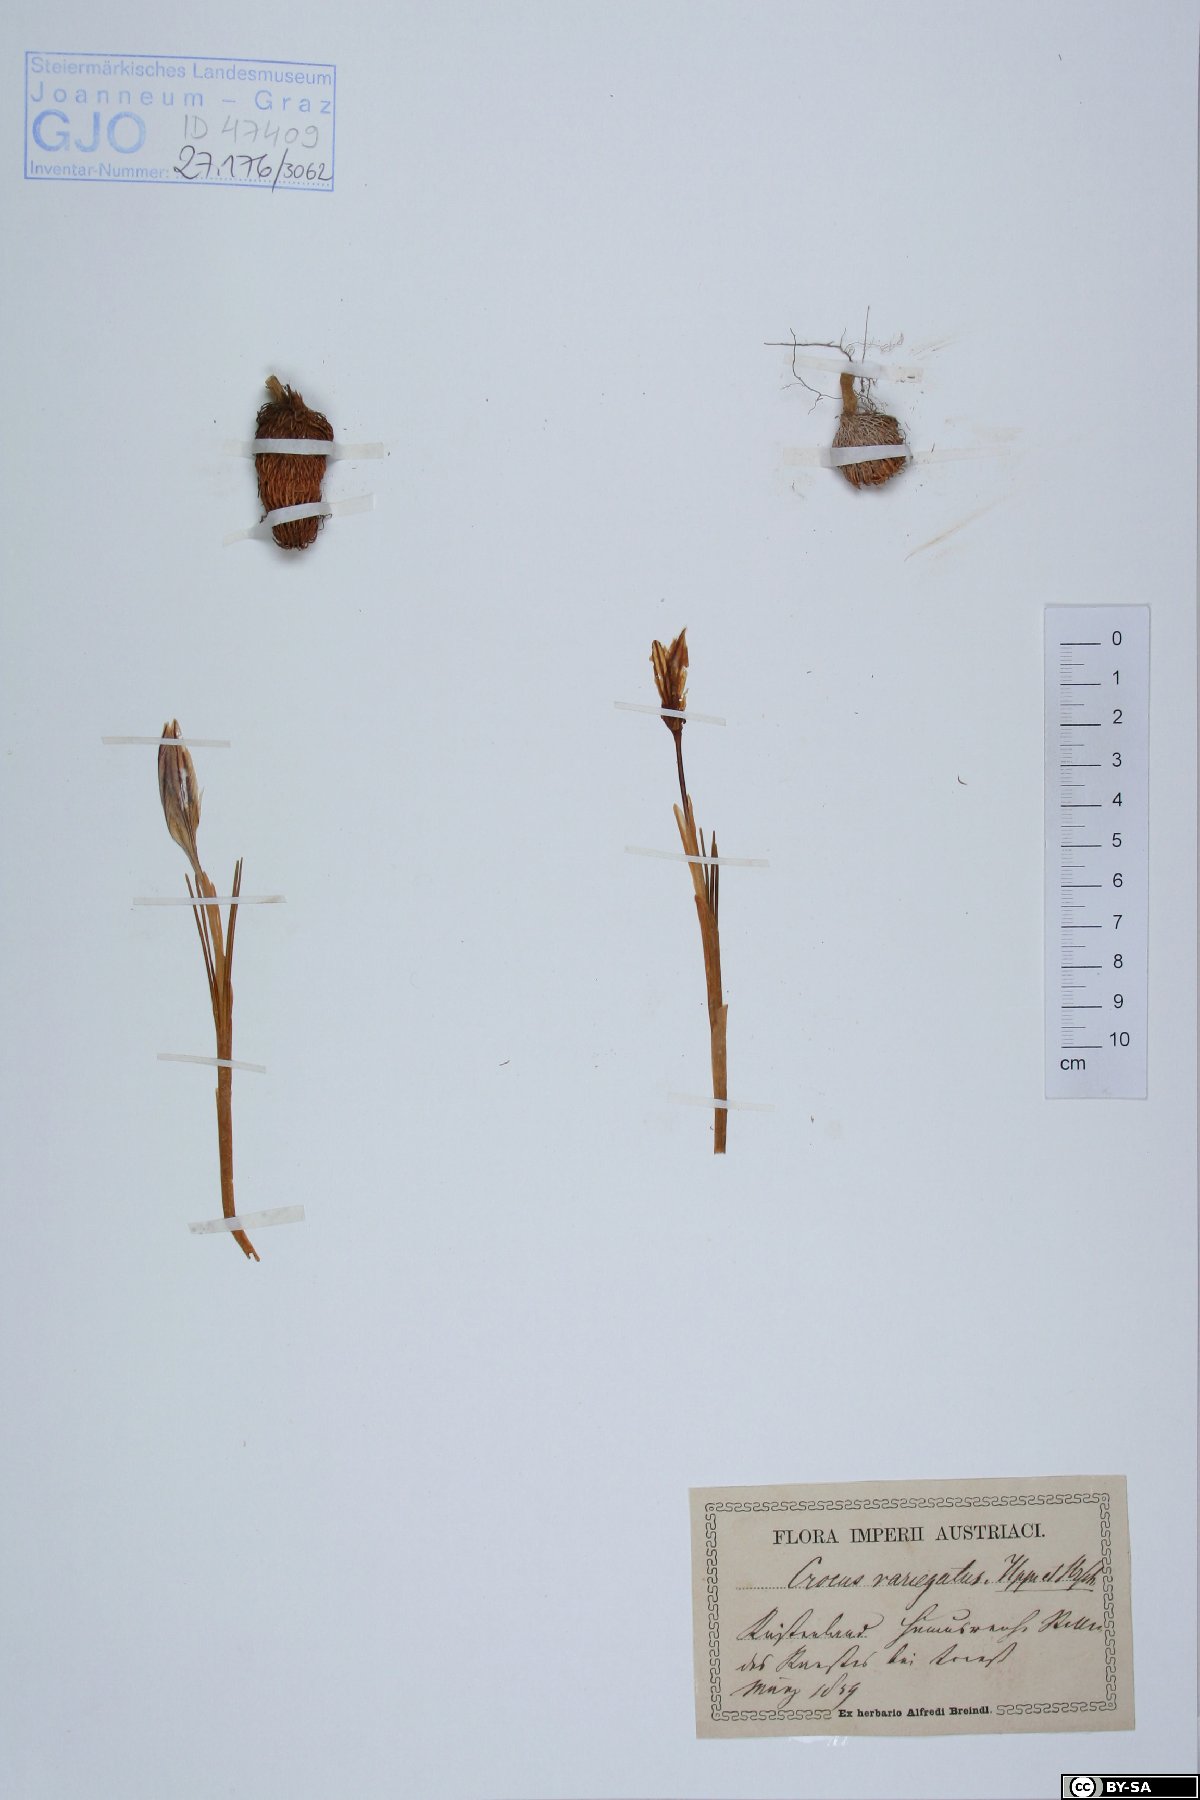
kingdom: Plantae
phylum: Tracheophyta
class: Liliopsida
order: Asparagales
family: Iridaceae
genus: Crocus
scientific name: Crocus variegatus
